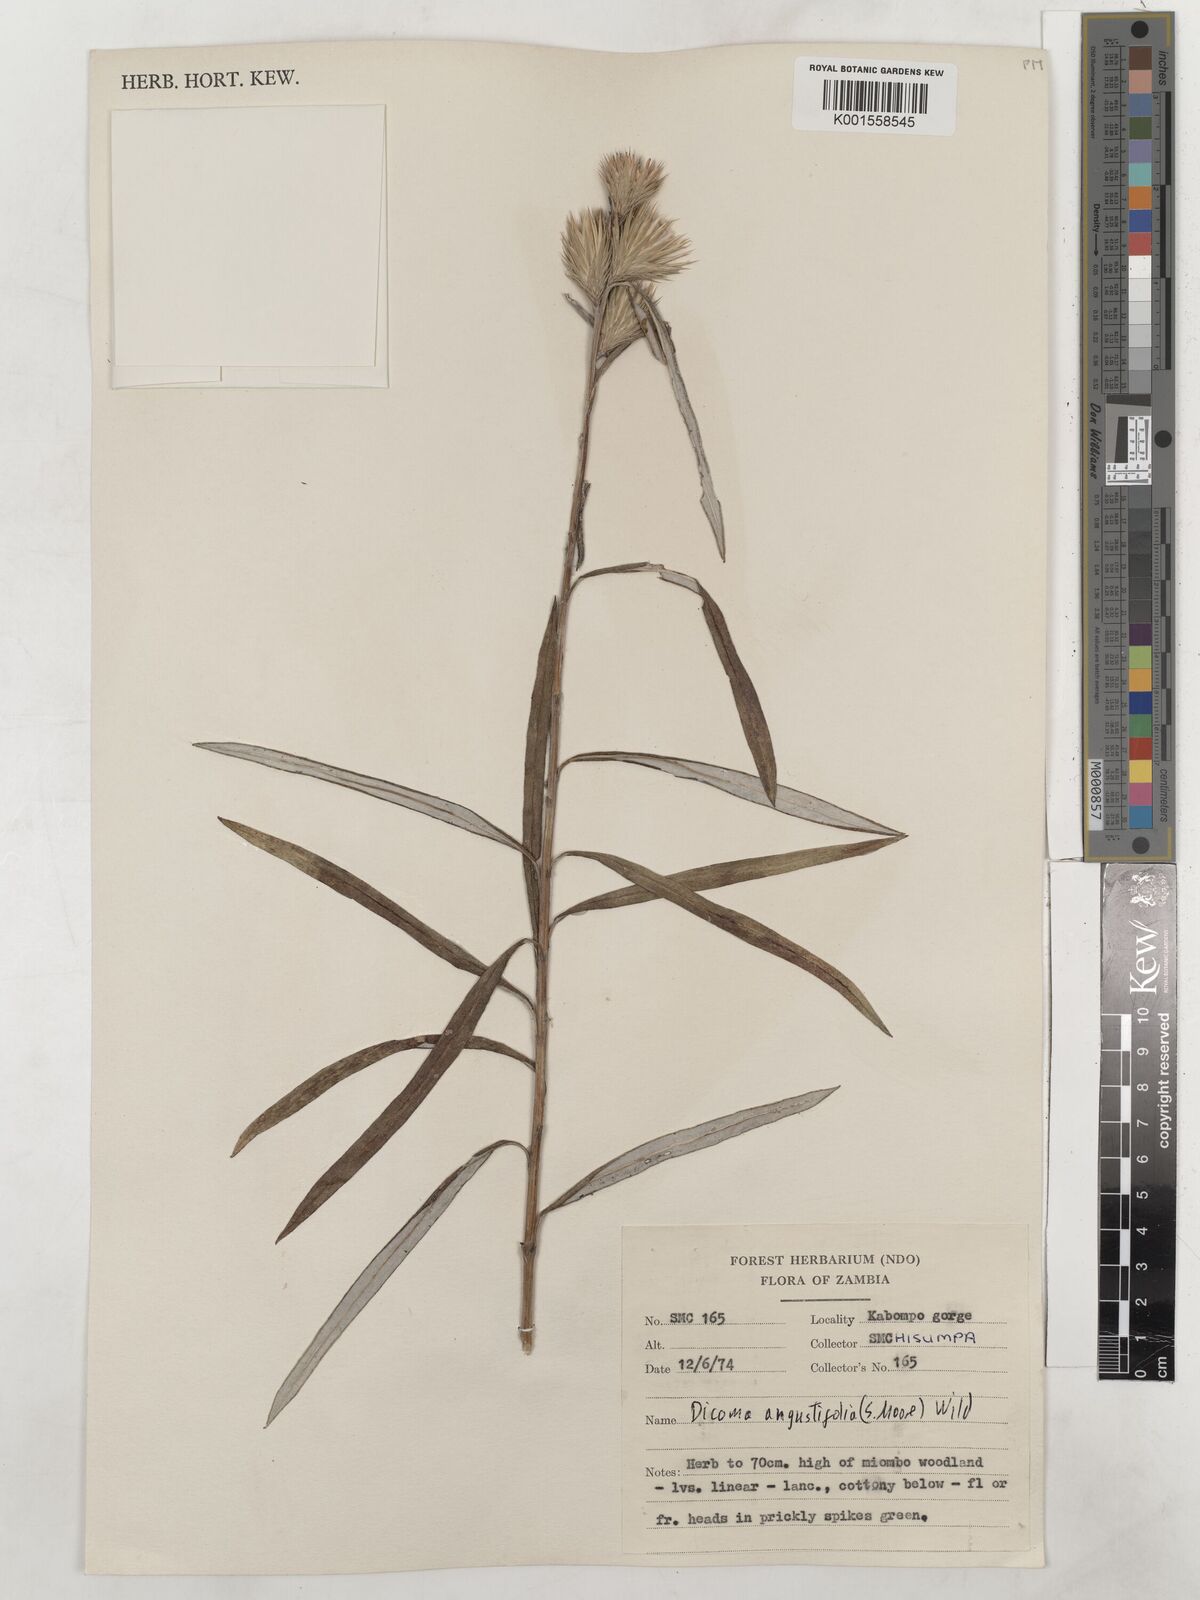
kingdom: Plantae
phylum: Tracheophyta
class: Magnoliopsida
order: Asterales
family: Asteraceae
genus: Macledium
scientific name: Macledium poggei
